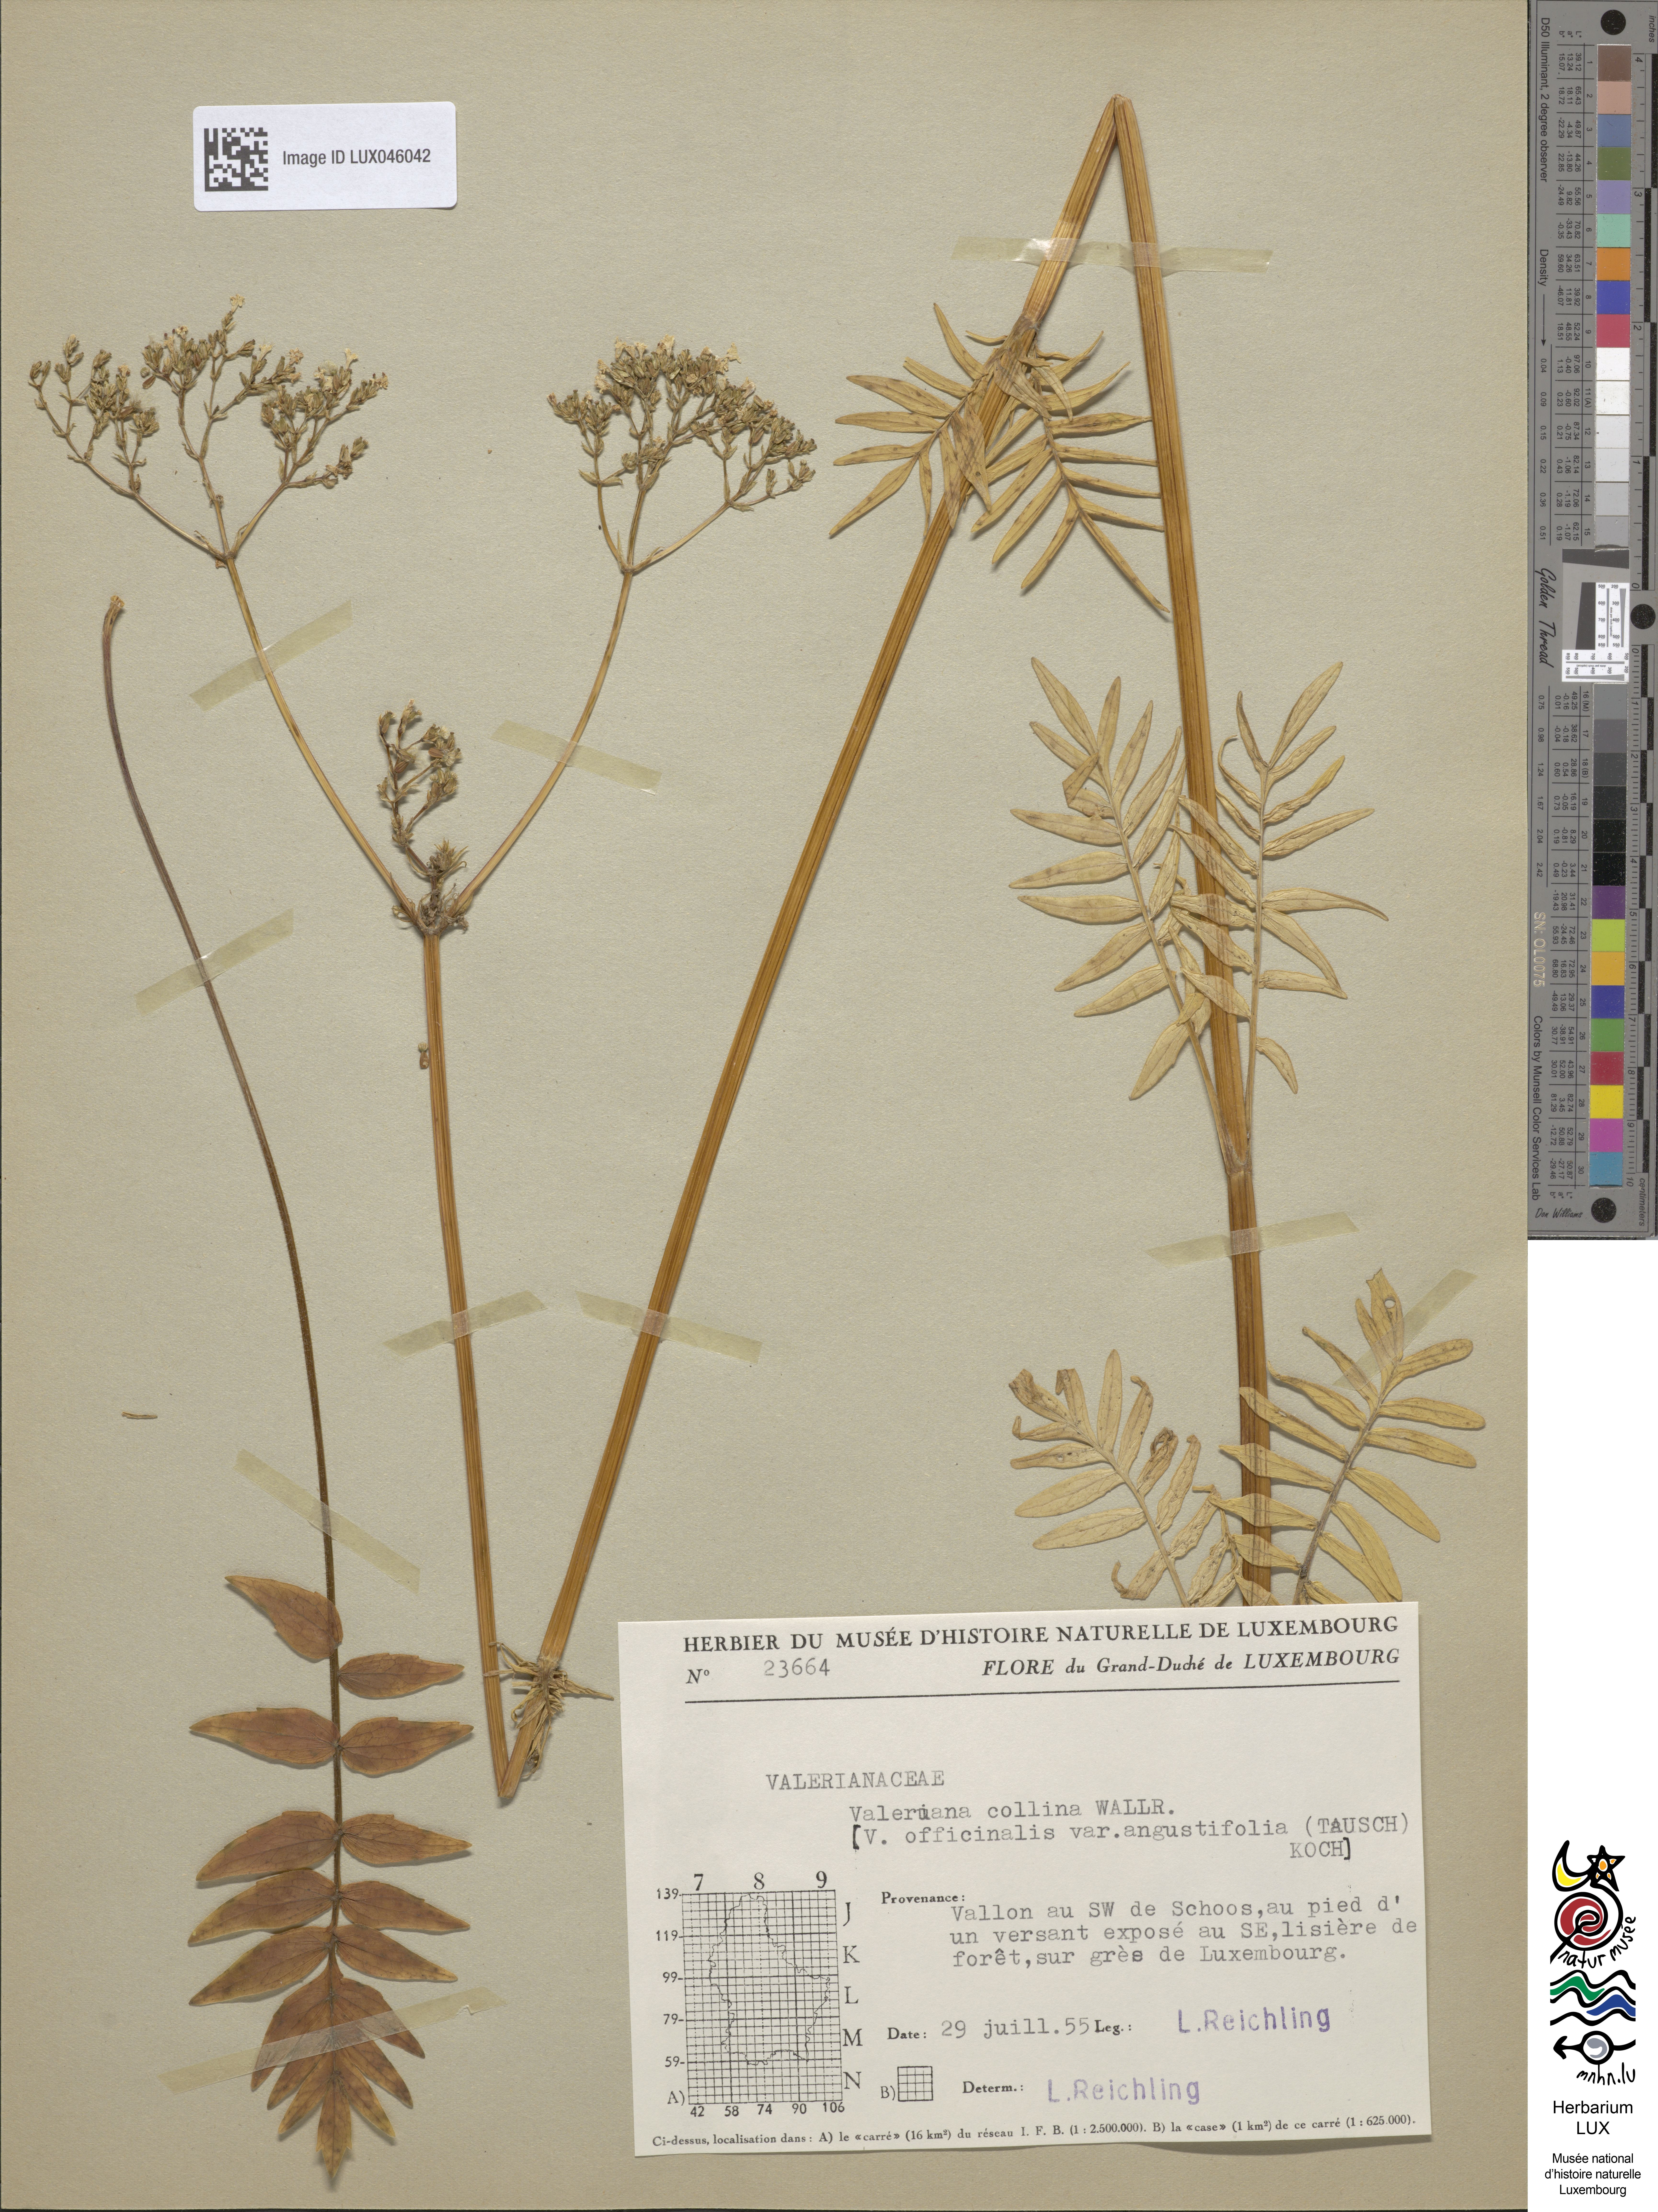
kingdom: Plantae
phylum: Tracheophyta
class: Magnoliopsida
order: Dipsacales
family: Caprifoliaceae
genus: Valeriana
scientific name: Valeriana pratensis
